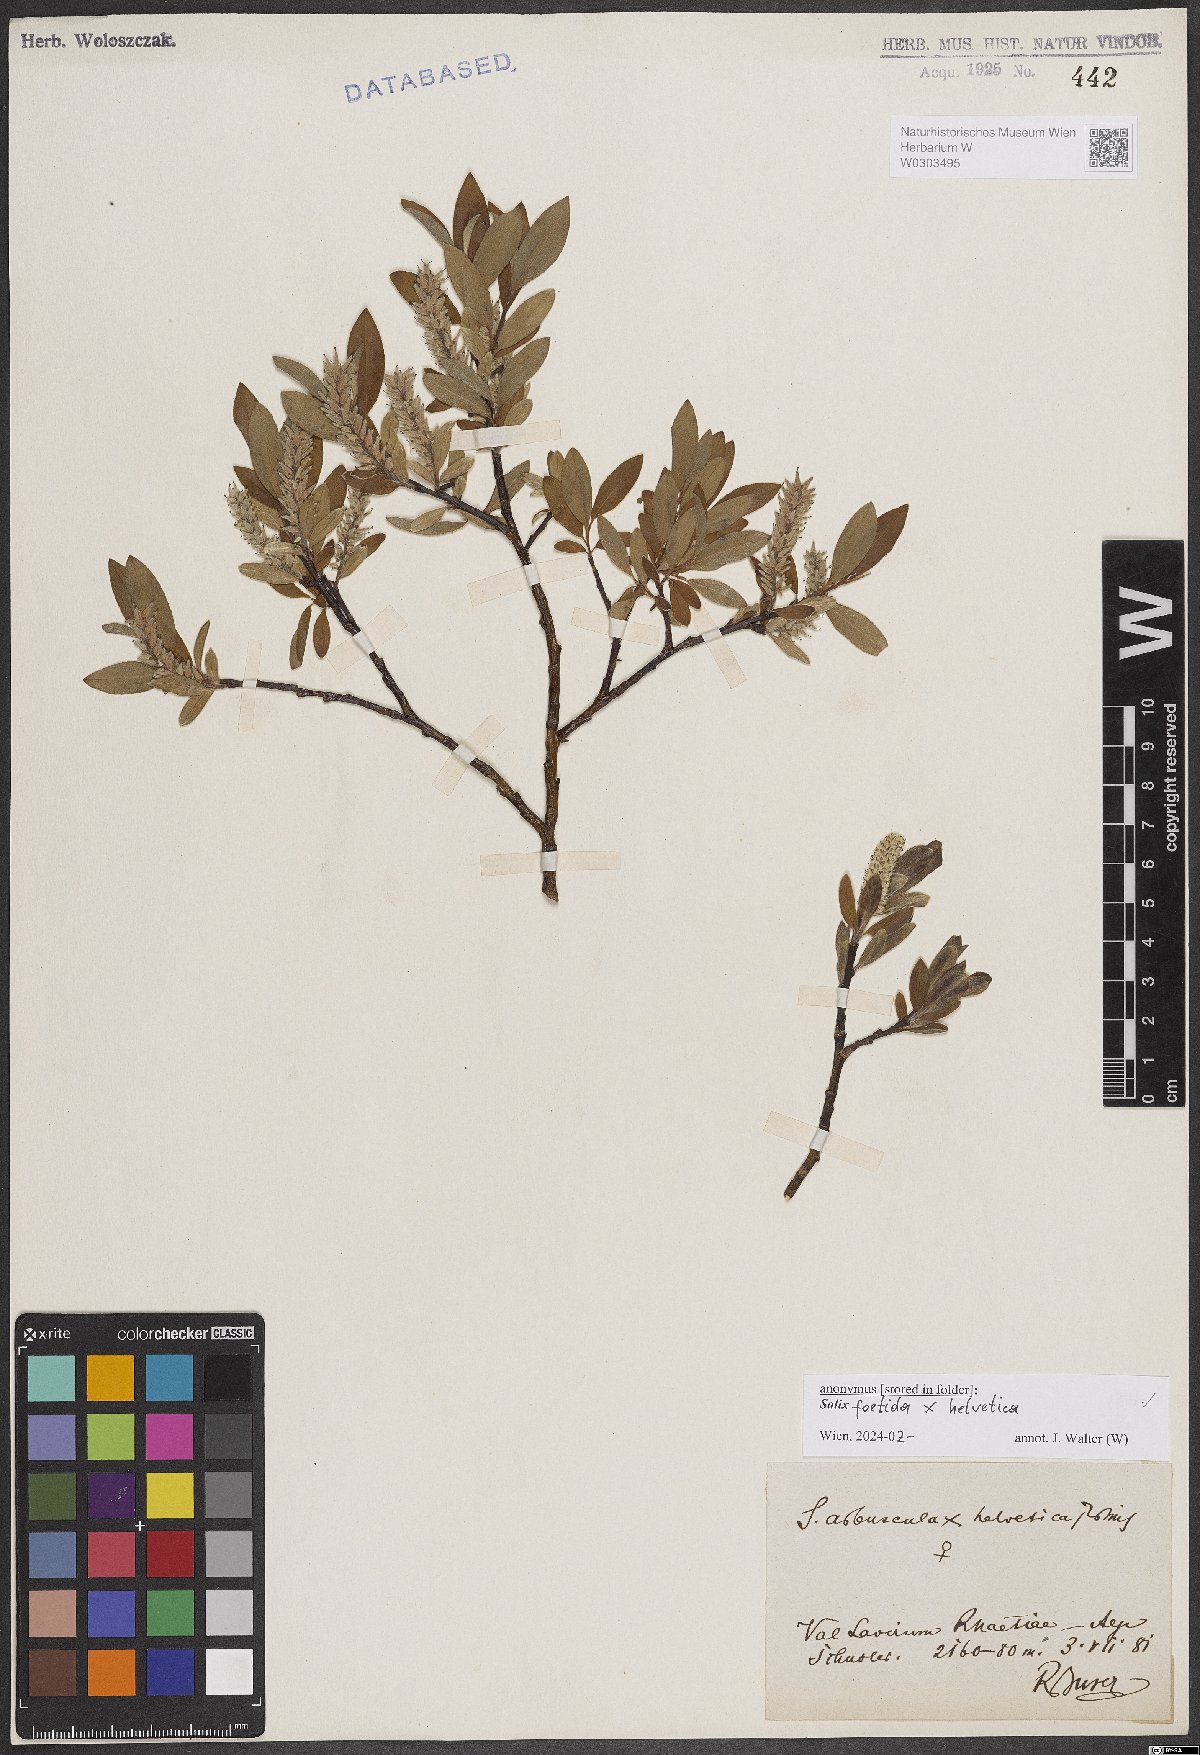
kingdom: Plantae
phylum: Tracheophyta
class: Magnoliopsida
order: Malpighiales
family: Salicaceae
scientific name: Salicaceae
